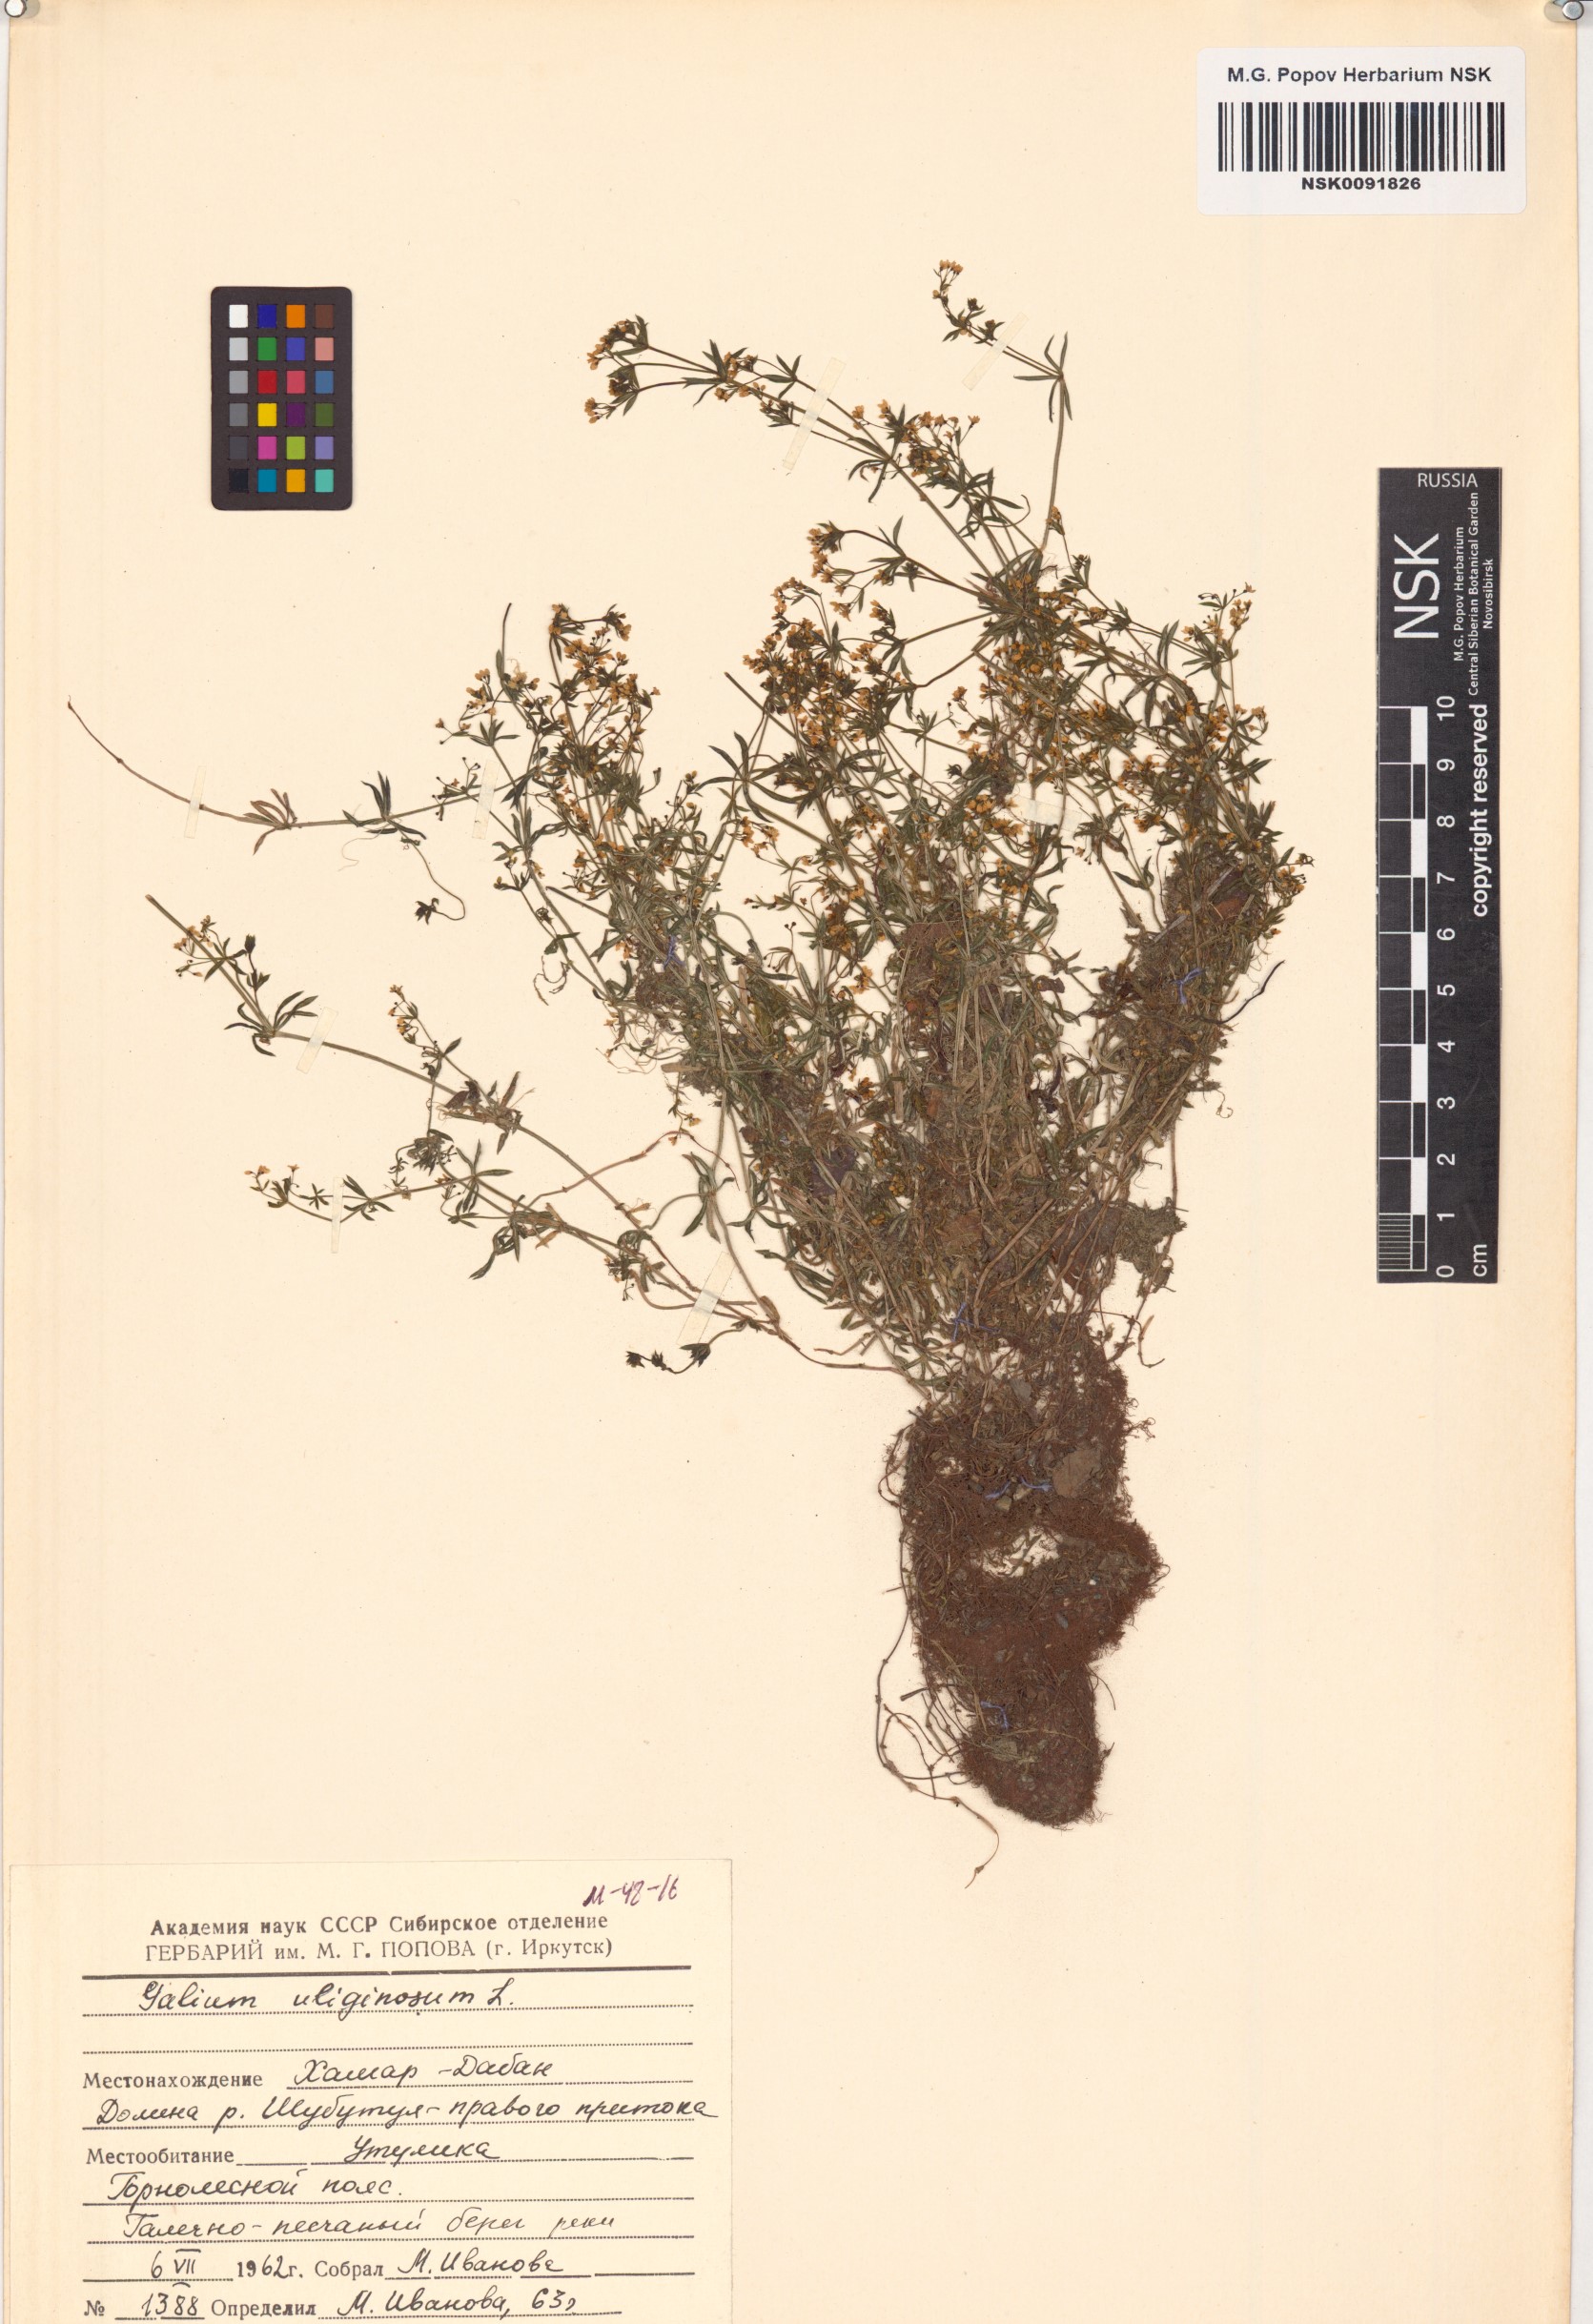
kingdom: Plantae
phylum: Tracheophyta
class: Magnoliopsida
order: Gentianales
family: Rubiaceae
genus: Galium
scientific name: Galium uliginosum
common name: Fen bedstraw
